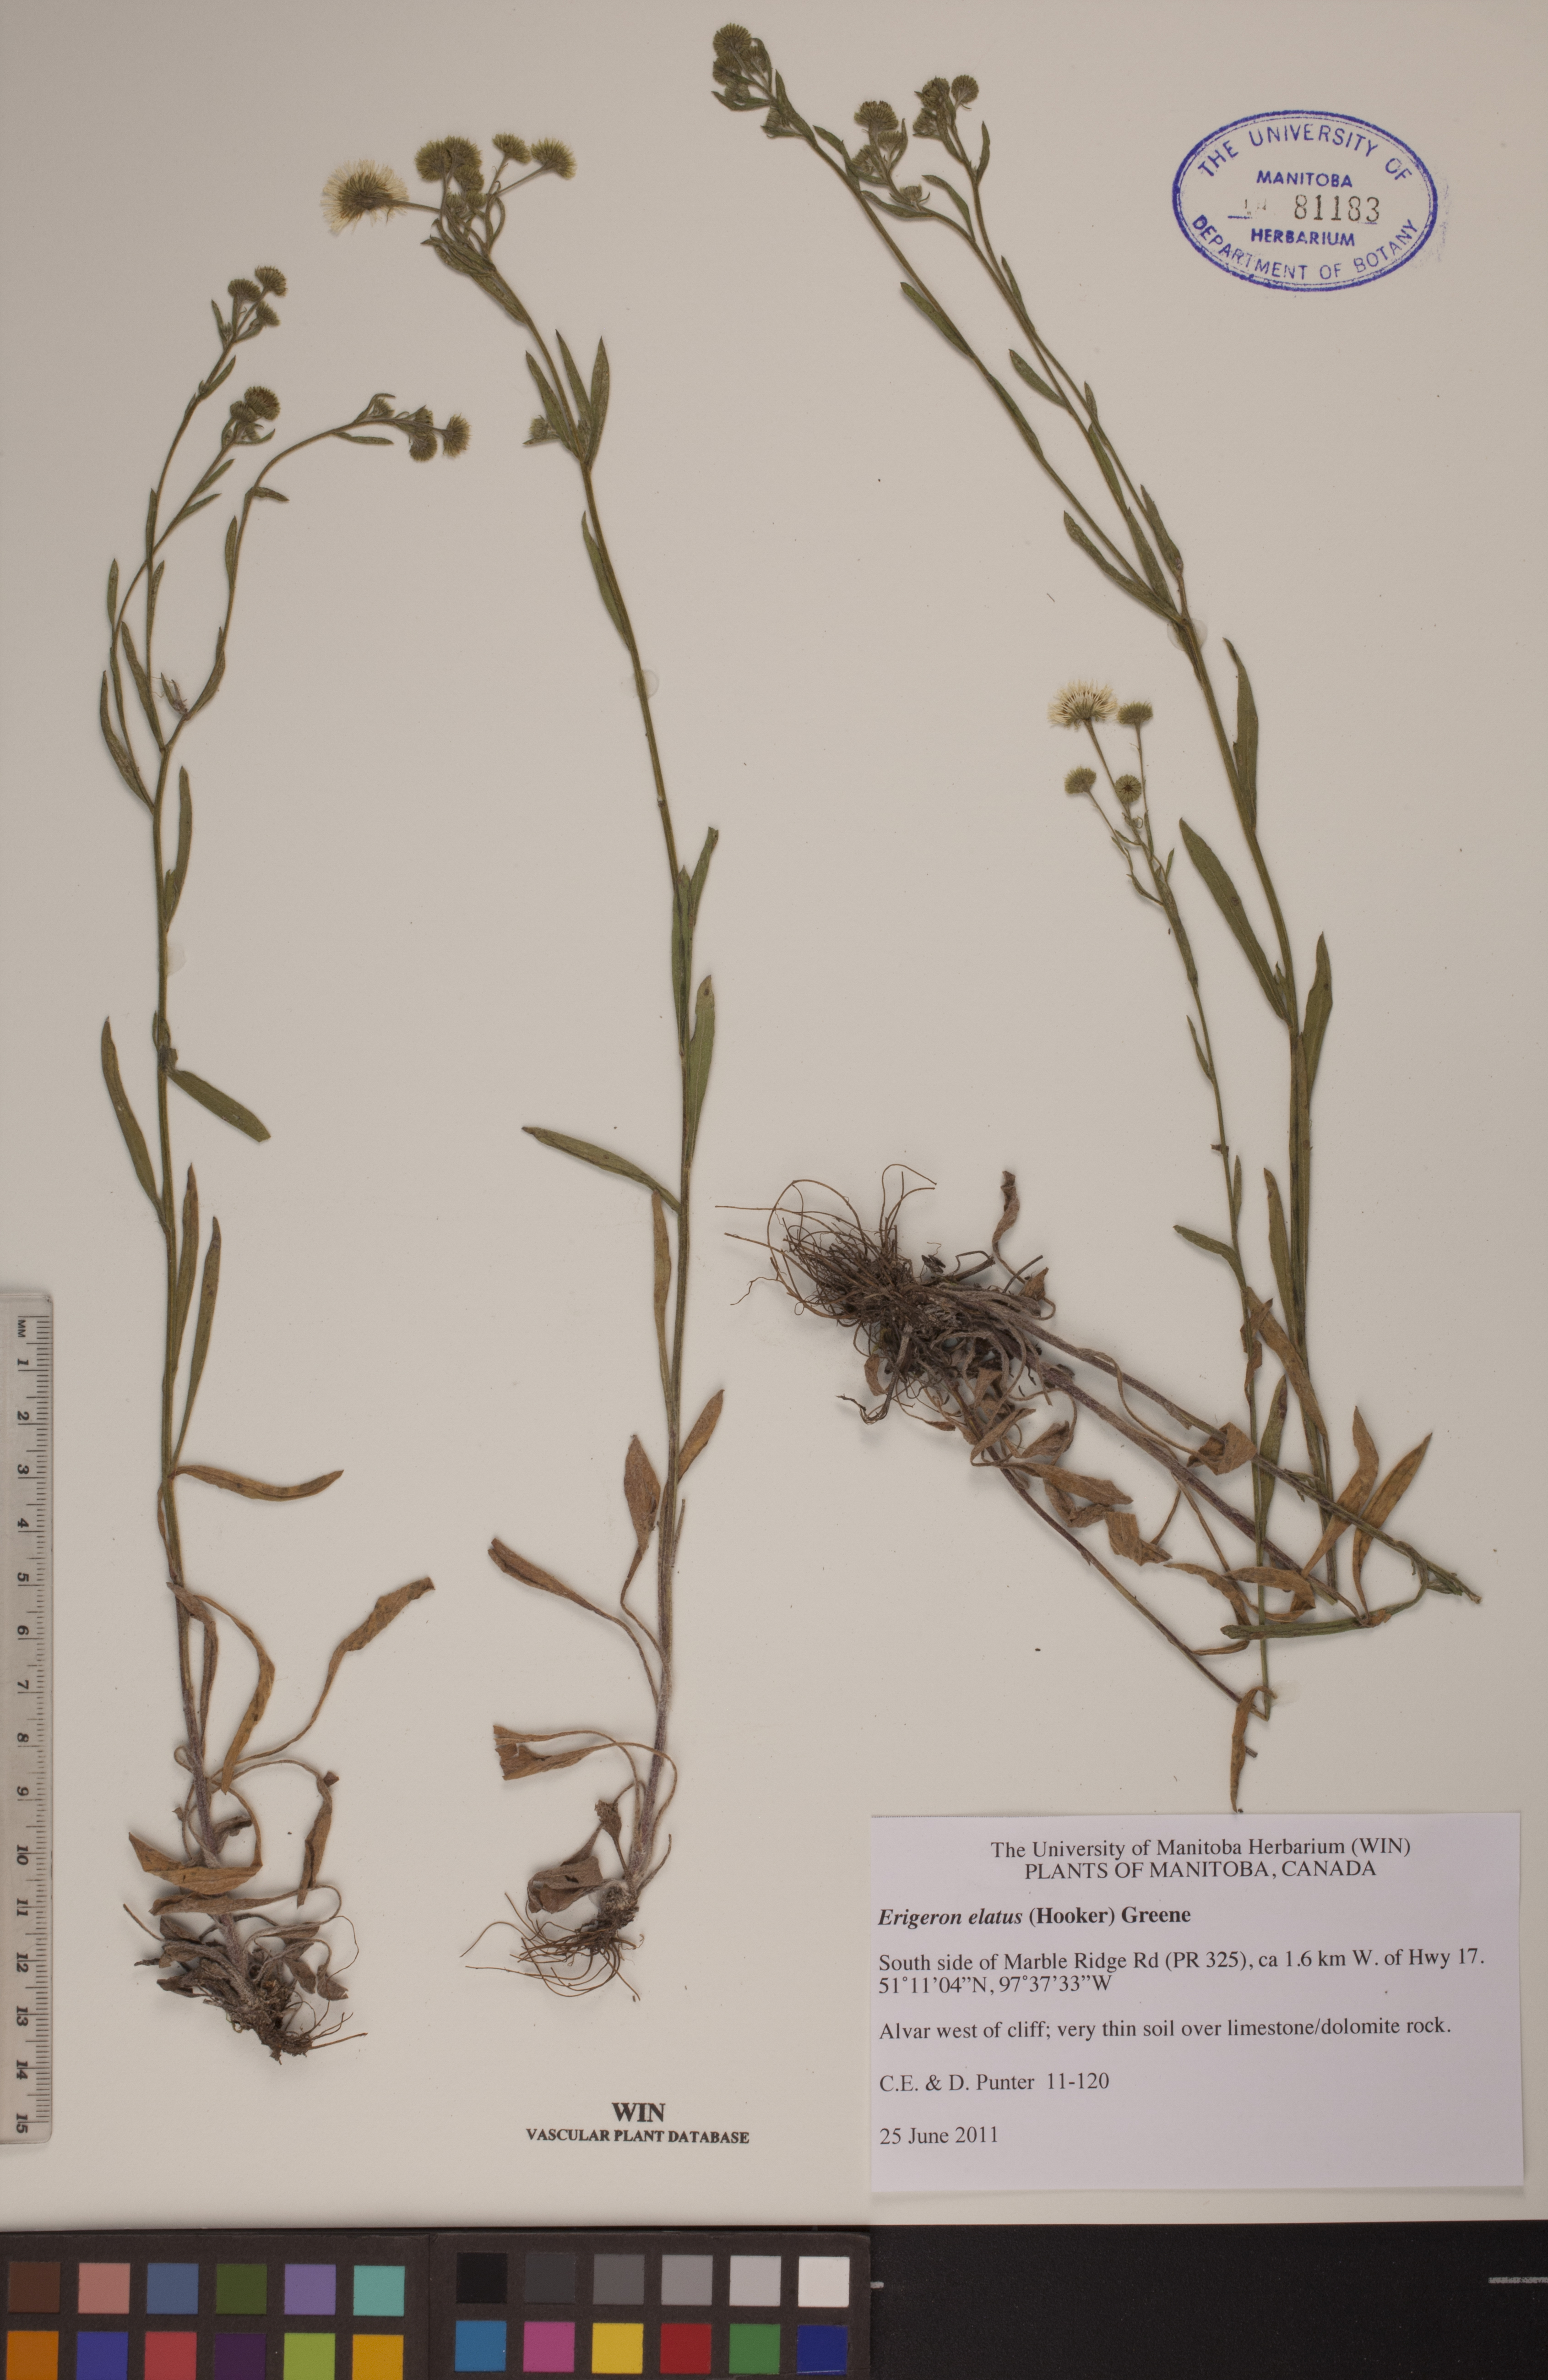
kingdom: Plantae
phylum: Tracheophyta
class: Magnoliopsida
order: Asterales
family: Asteraceae
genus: Erigeron
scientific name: Erigeron elatus
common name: Swamp fleabane
